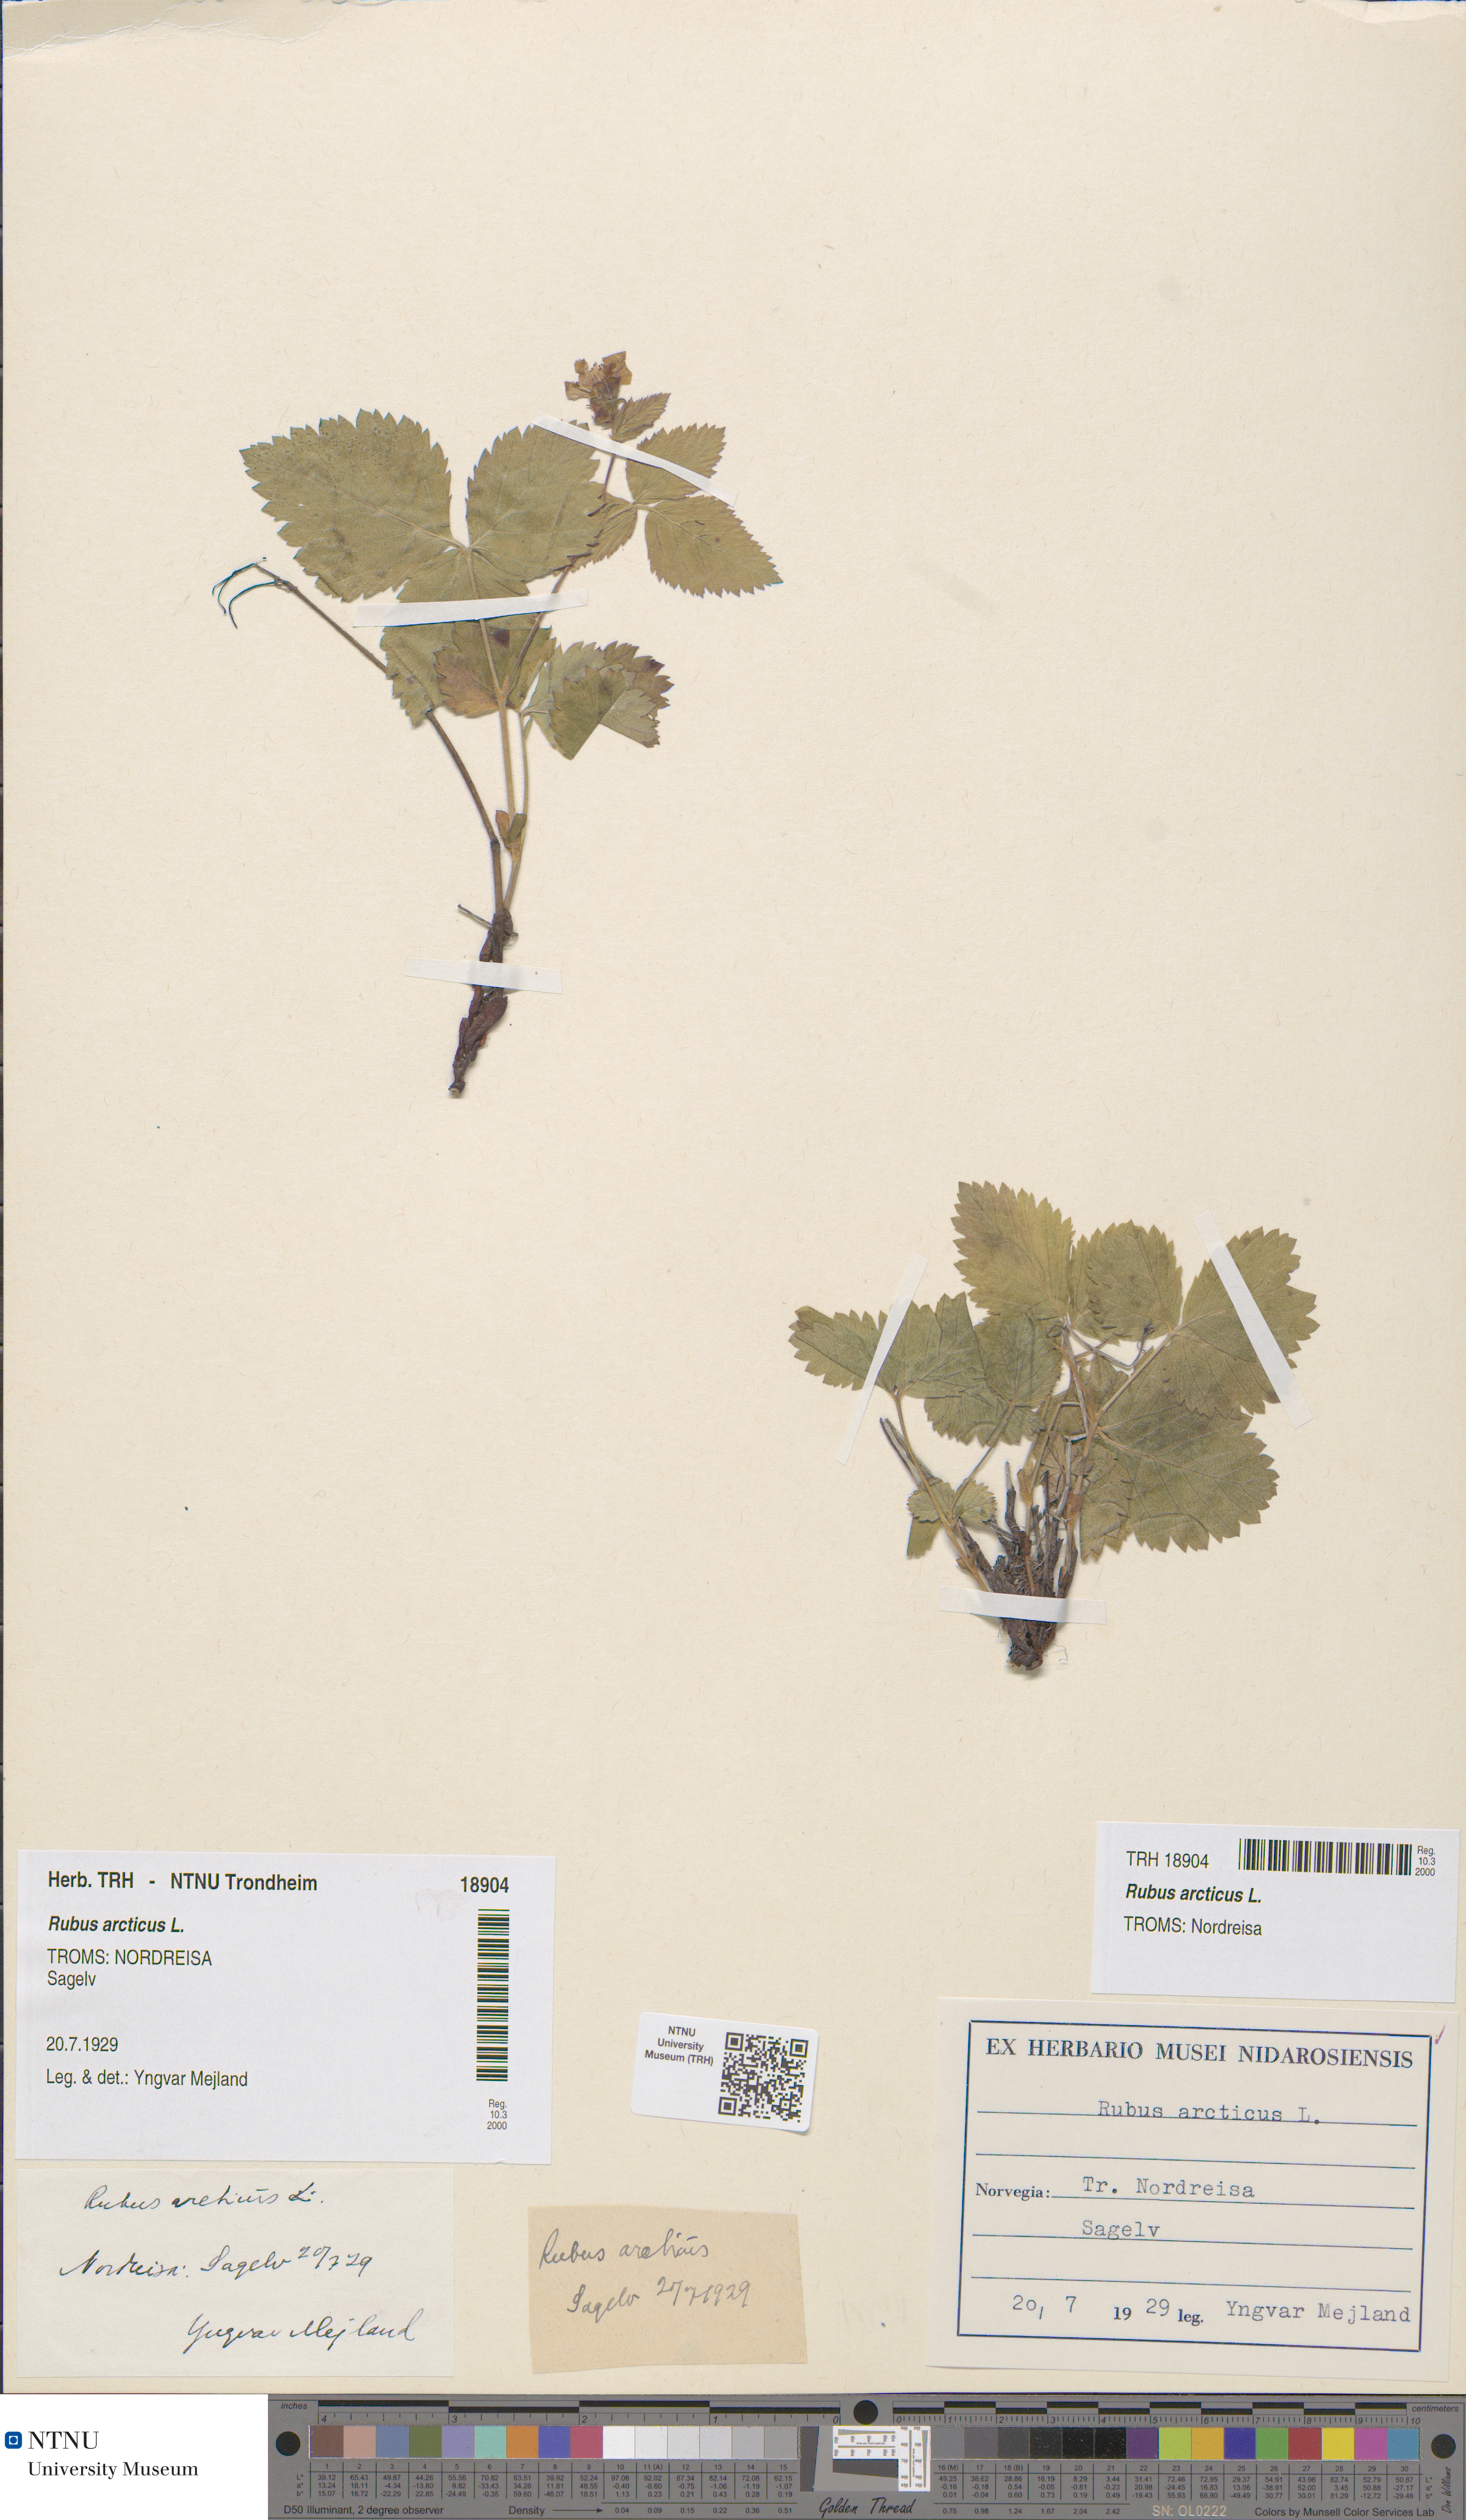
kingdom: Plantae
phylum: Tracheophyta
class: Magnoliopsida
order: Rosales
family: Rosaceae
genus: Rubus
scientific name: Rubus arcticus
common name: Arctic bramble
